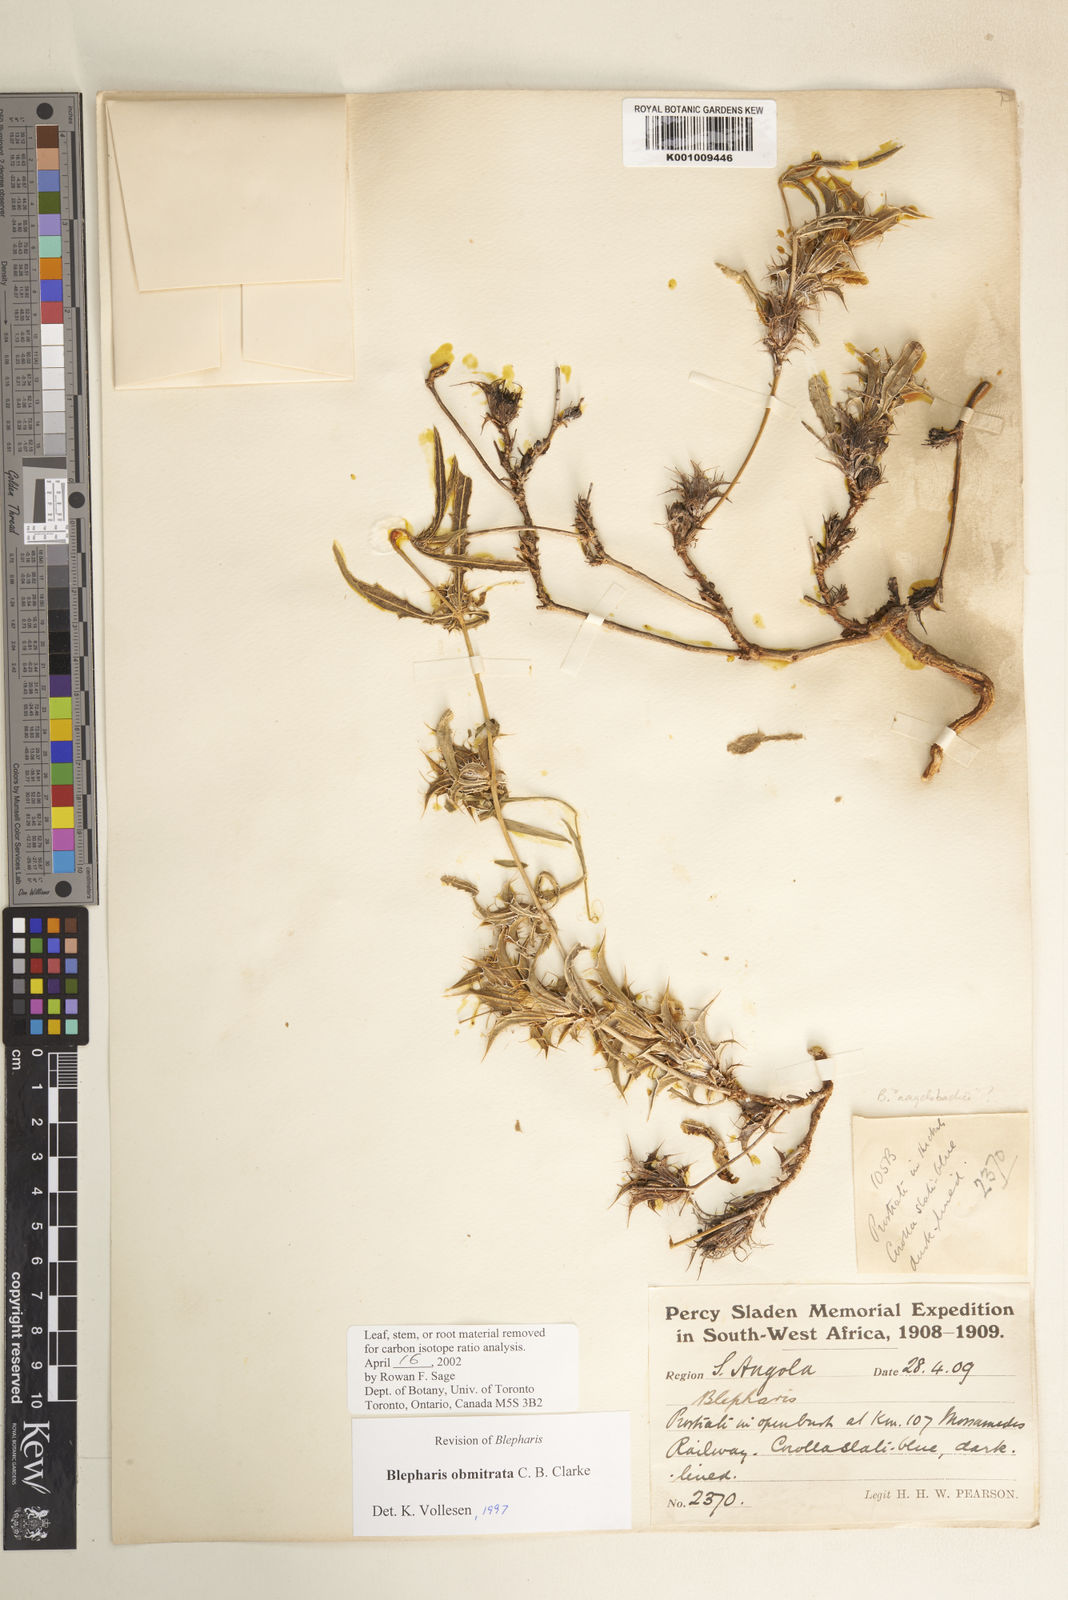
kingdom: Plantae
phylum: Tracheophyta
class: Magnoliopsida
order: Lamiales
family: Acanthaceae
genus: Blepharis
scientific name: Blepharis obmitrata
